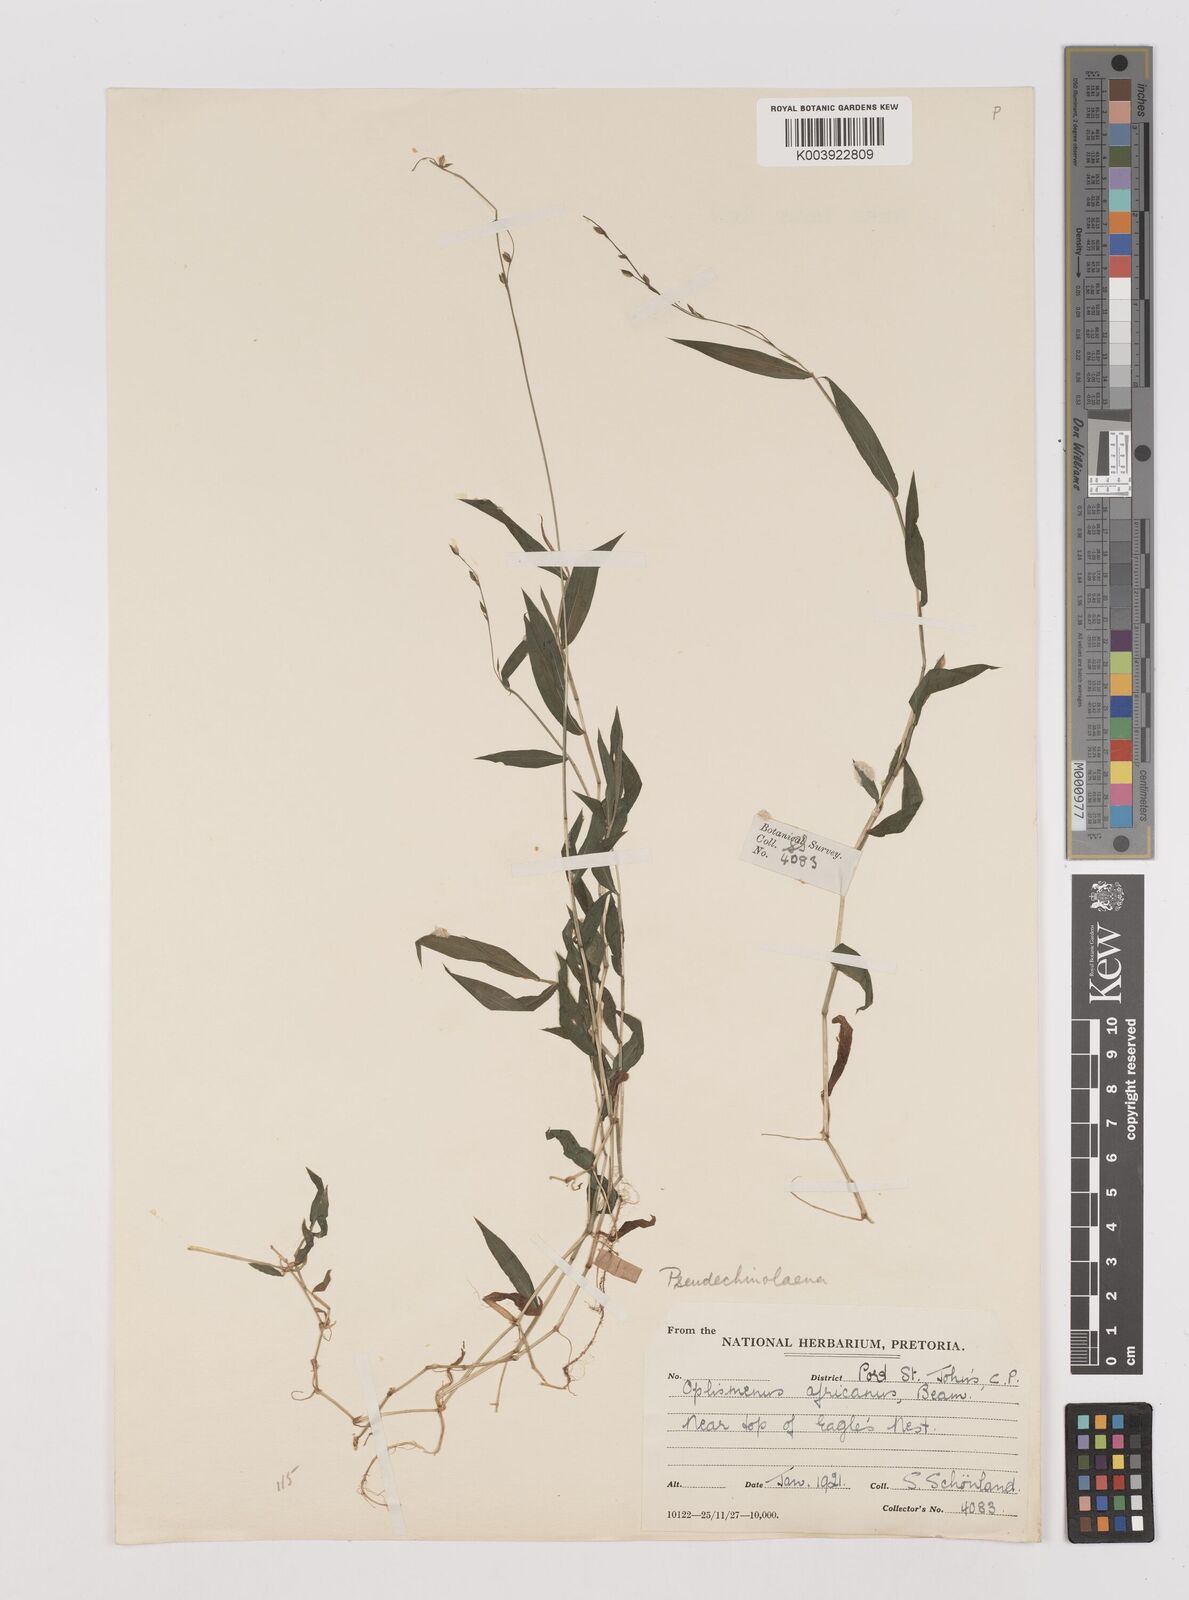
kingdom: Plantae
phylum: Tracheophyta
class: Liliopsida
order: Poales
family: Poaceae
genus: Pseudechinolaena
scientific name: Pseudechinolaena polystachya
